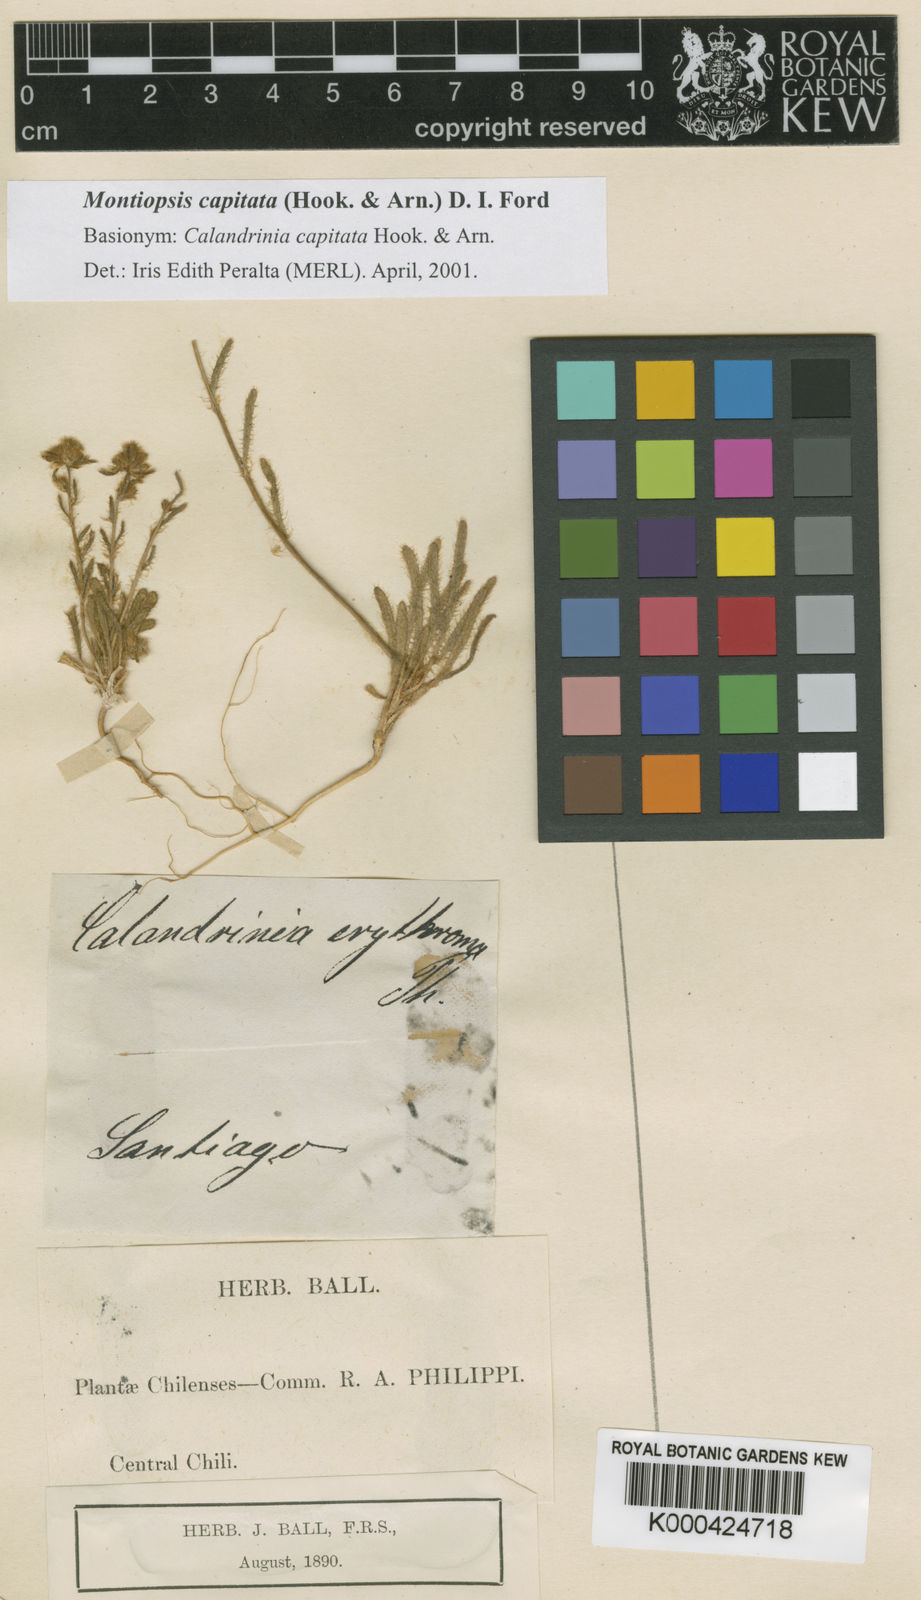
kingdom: Plantae
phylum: Tracheophyta
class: Magnoliopsida
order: Caryophyllales
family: Montiaceae
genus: Montiopsis
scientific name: Montiopsis capitata
